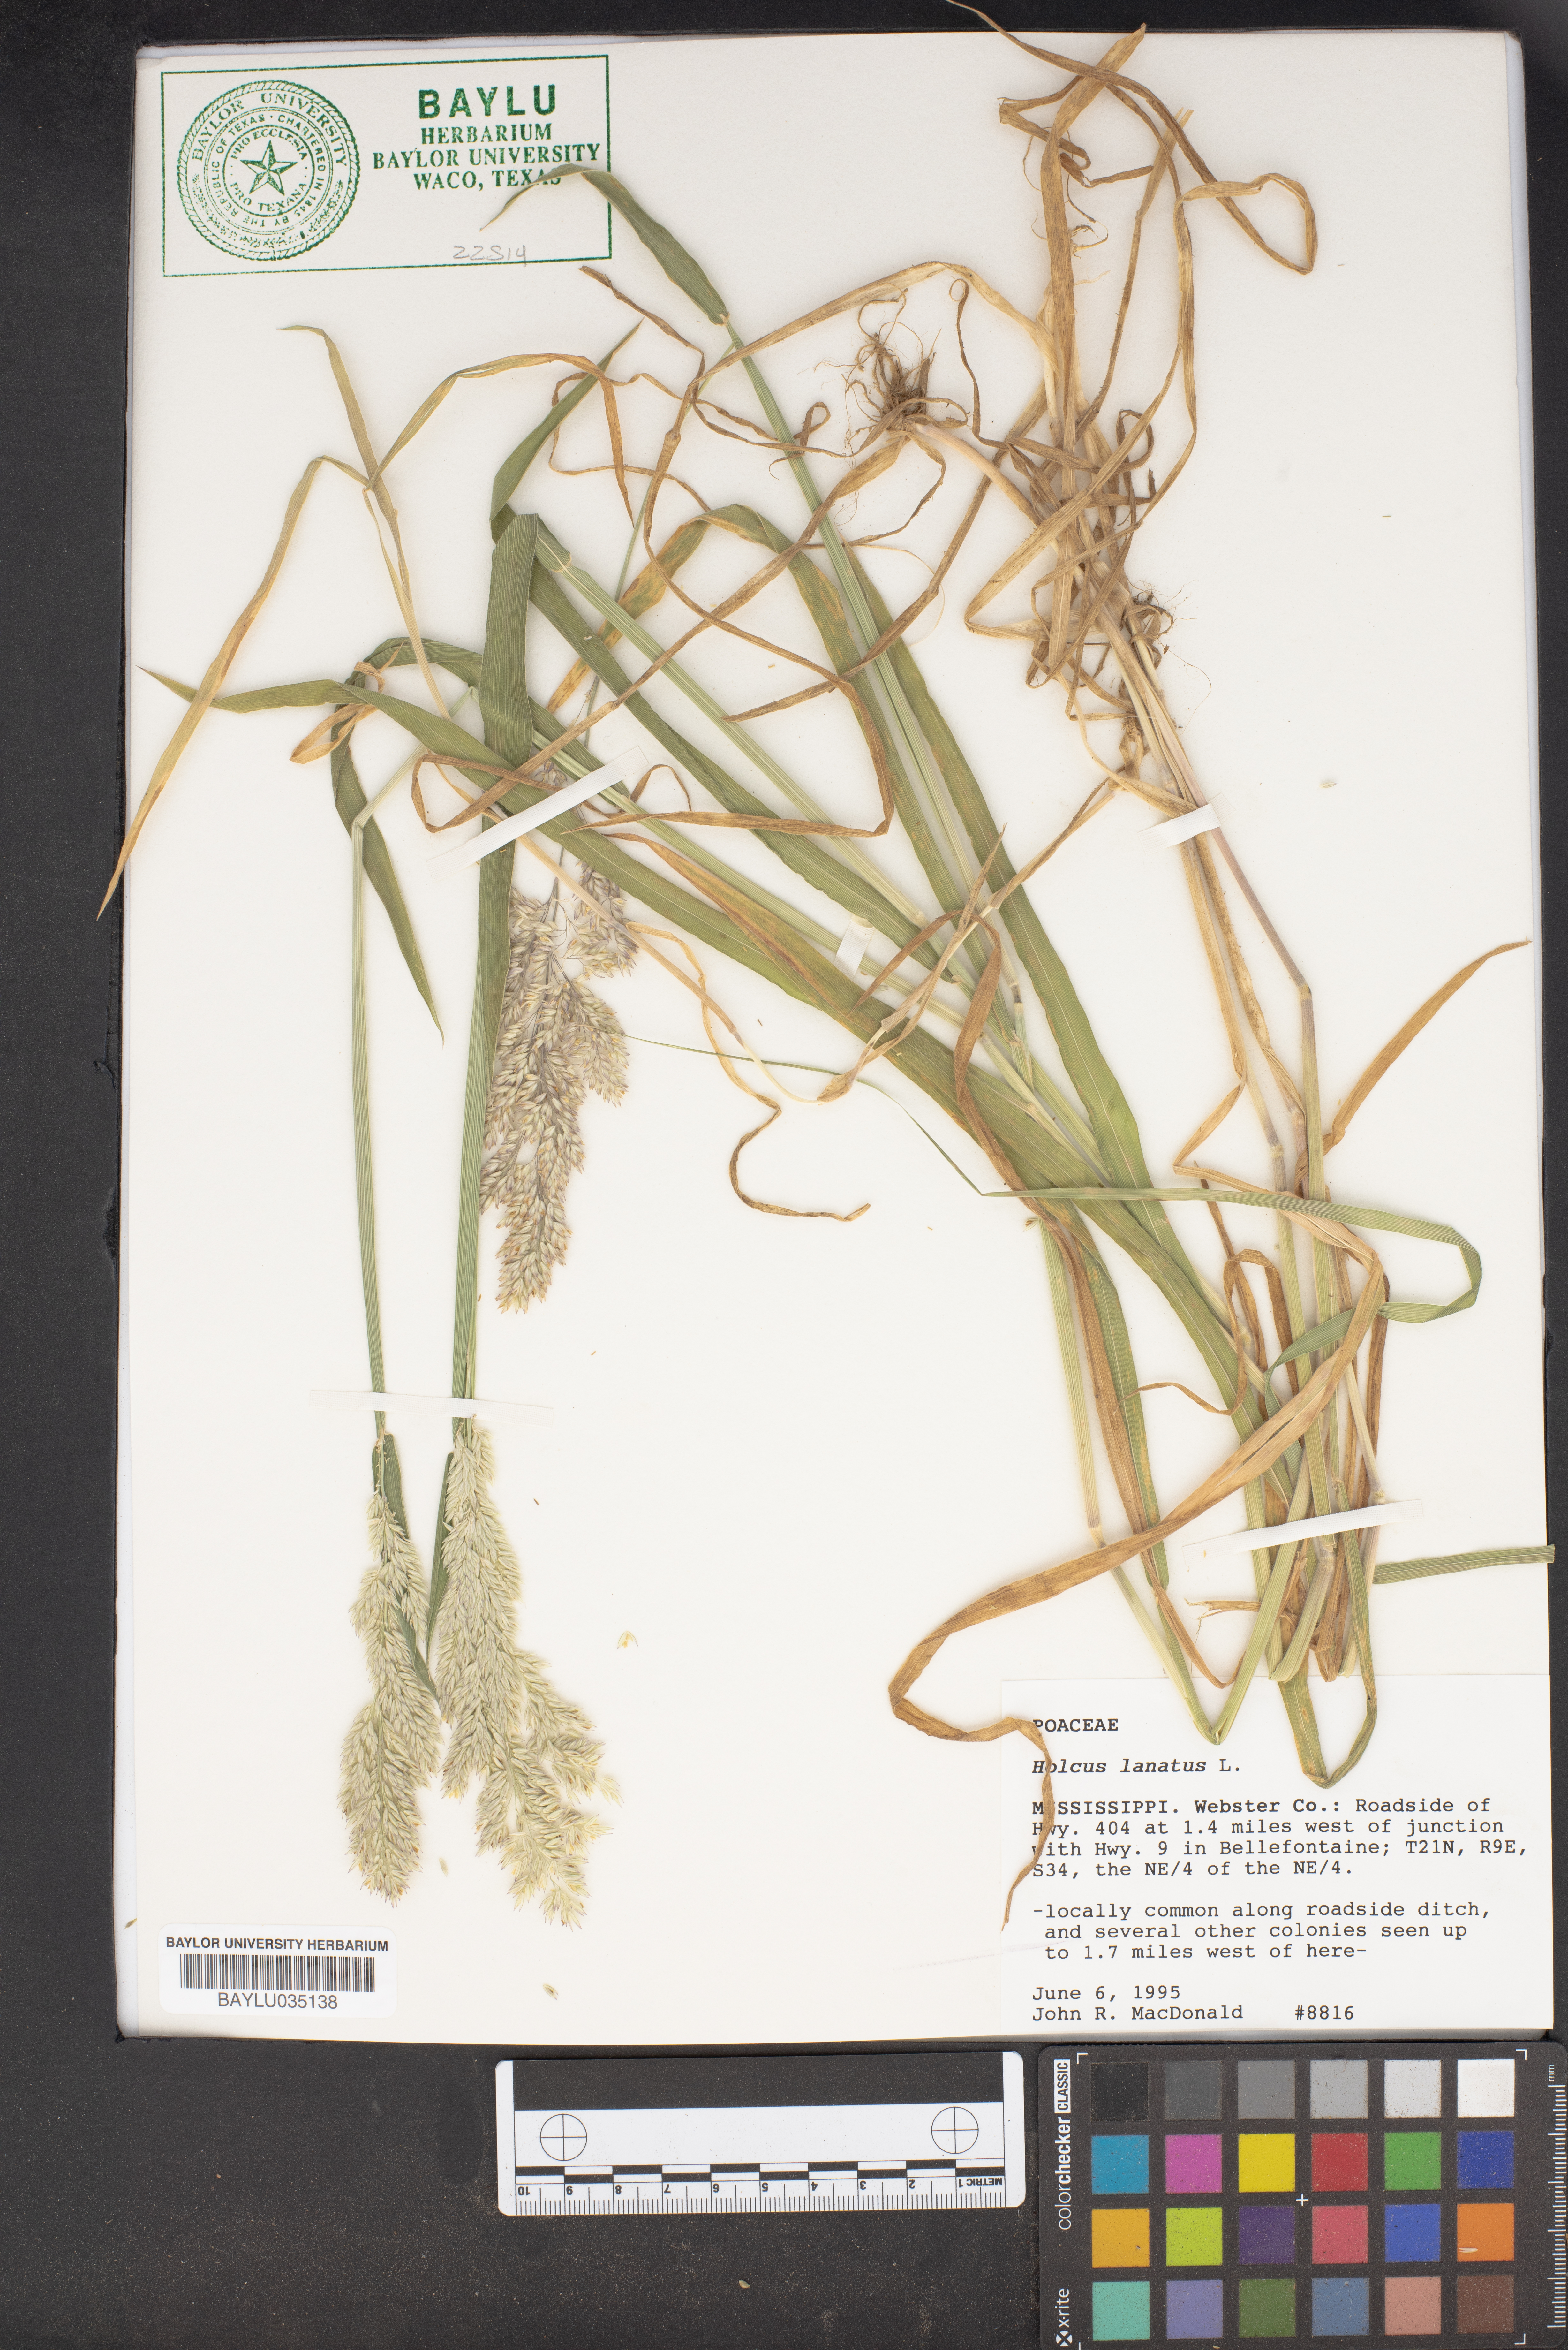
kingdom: Plantae
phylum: Tracheophyta
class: Liliopsida
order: Poales
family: Poaceae
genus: Holcus
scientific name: Holcus lanatus
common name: Yorkshire-fog
